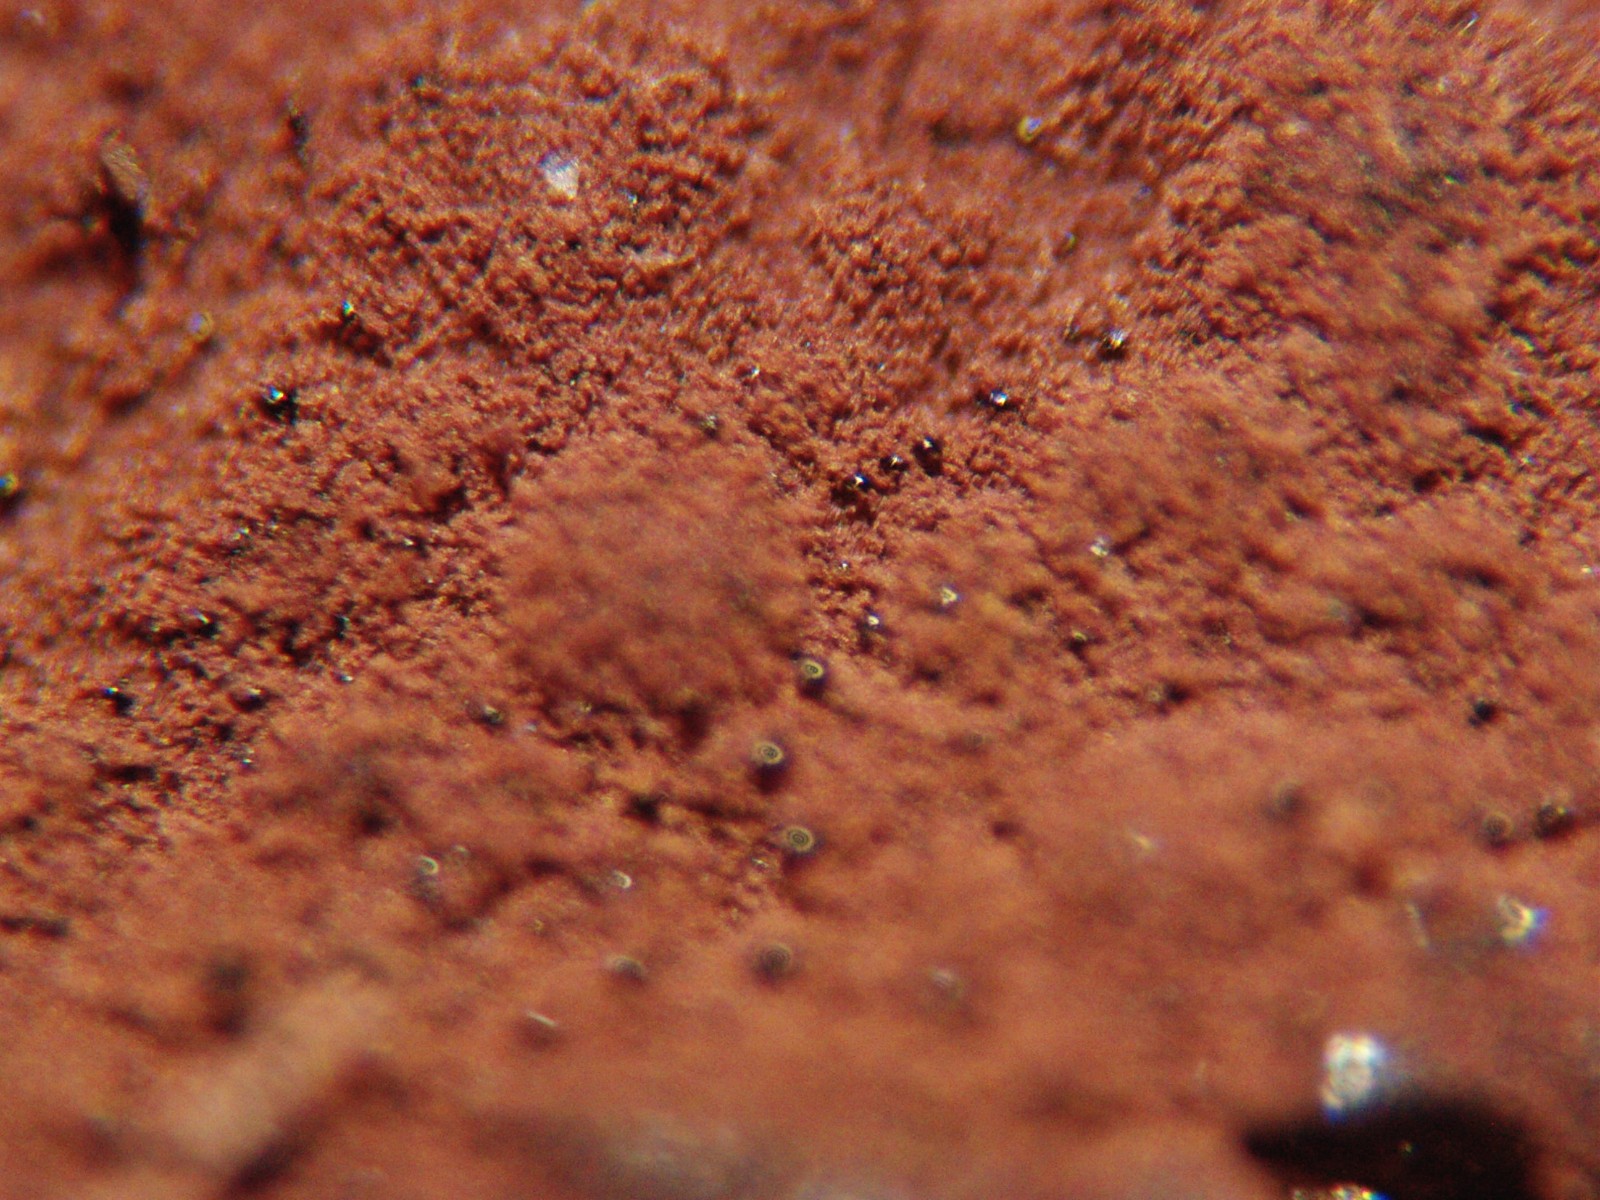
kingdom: Fungi
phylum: Ascomycota
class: Sordariomycetes
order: Xylariales
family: Hypoxylaceae
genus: Hypoxylon
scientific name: Hypoxylon macrocarpum
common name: skorpe-kulbær
